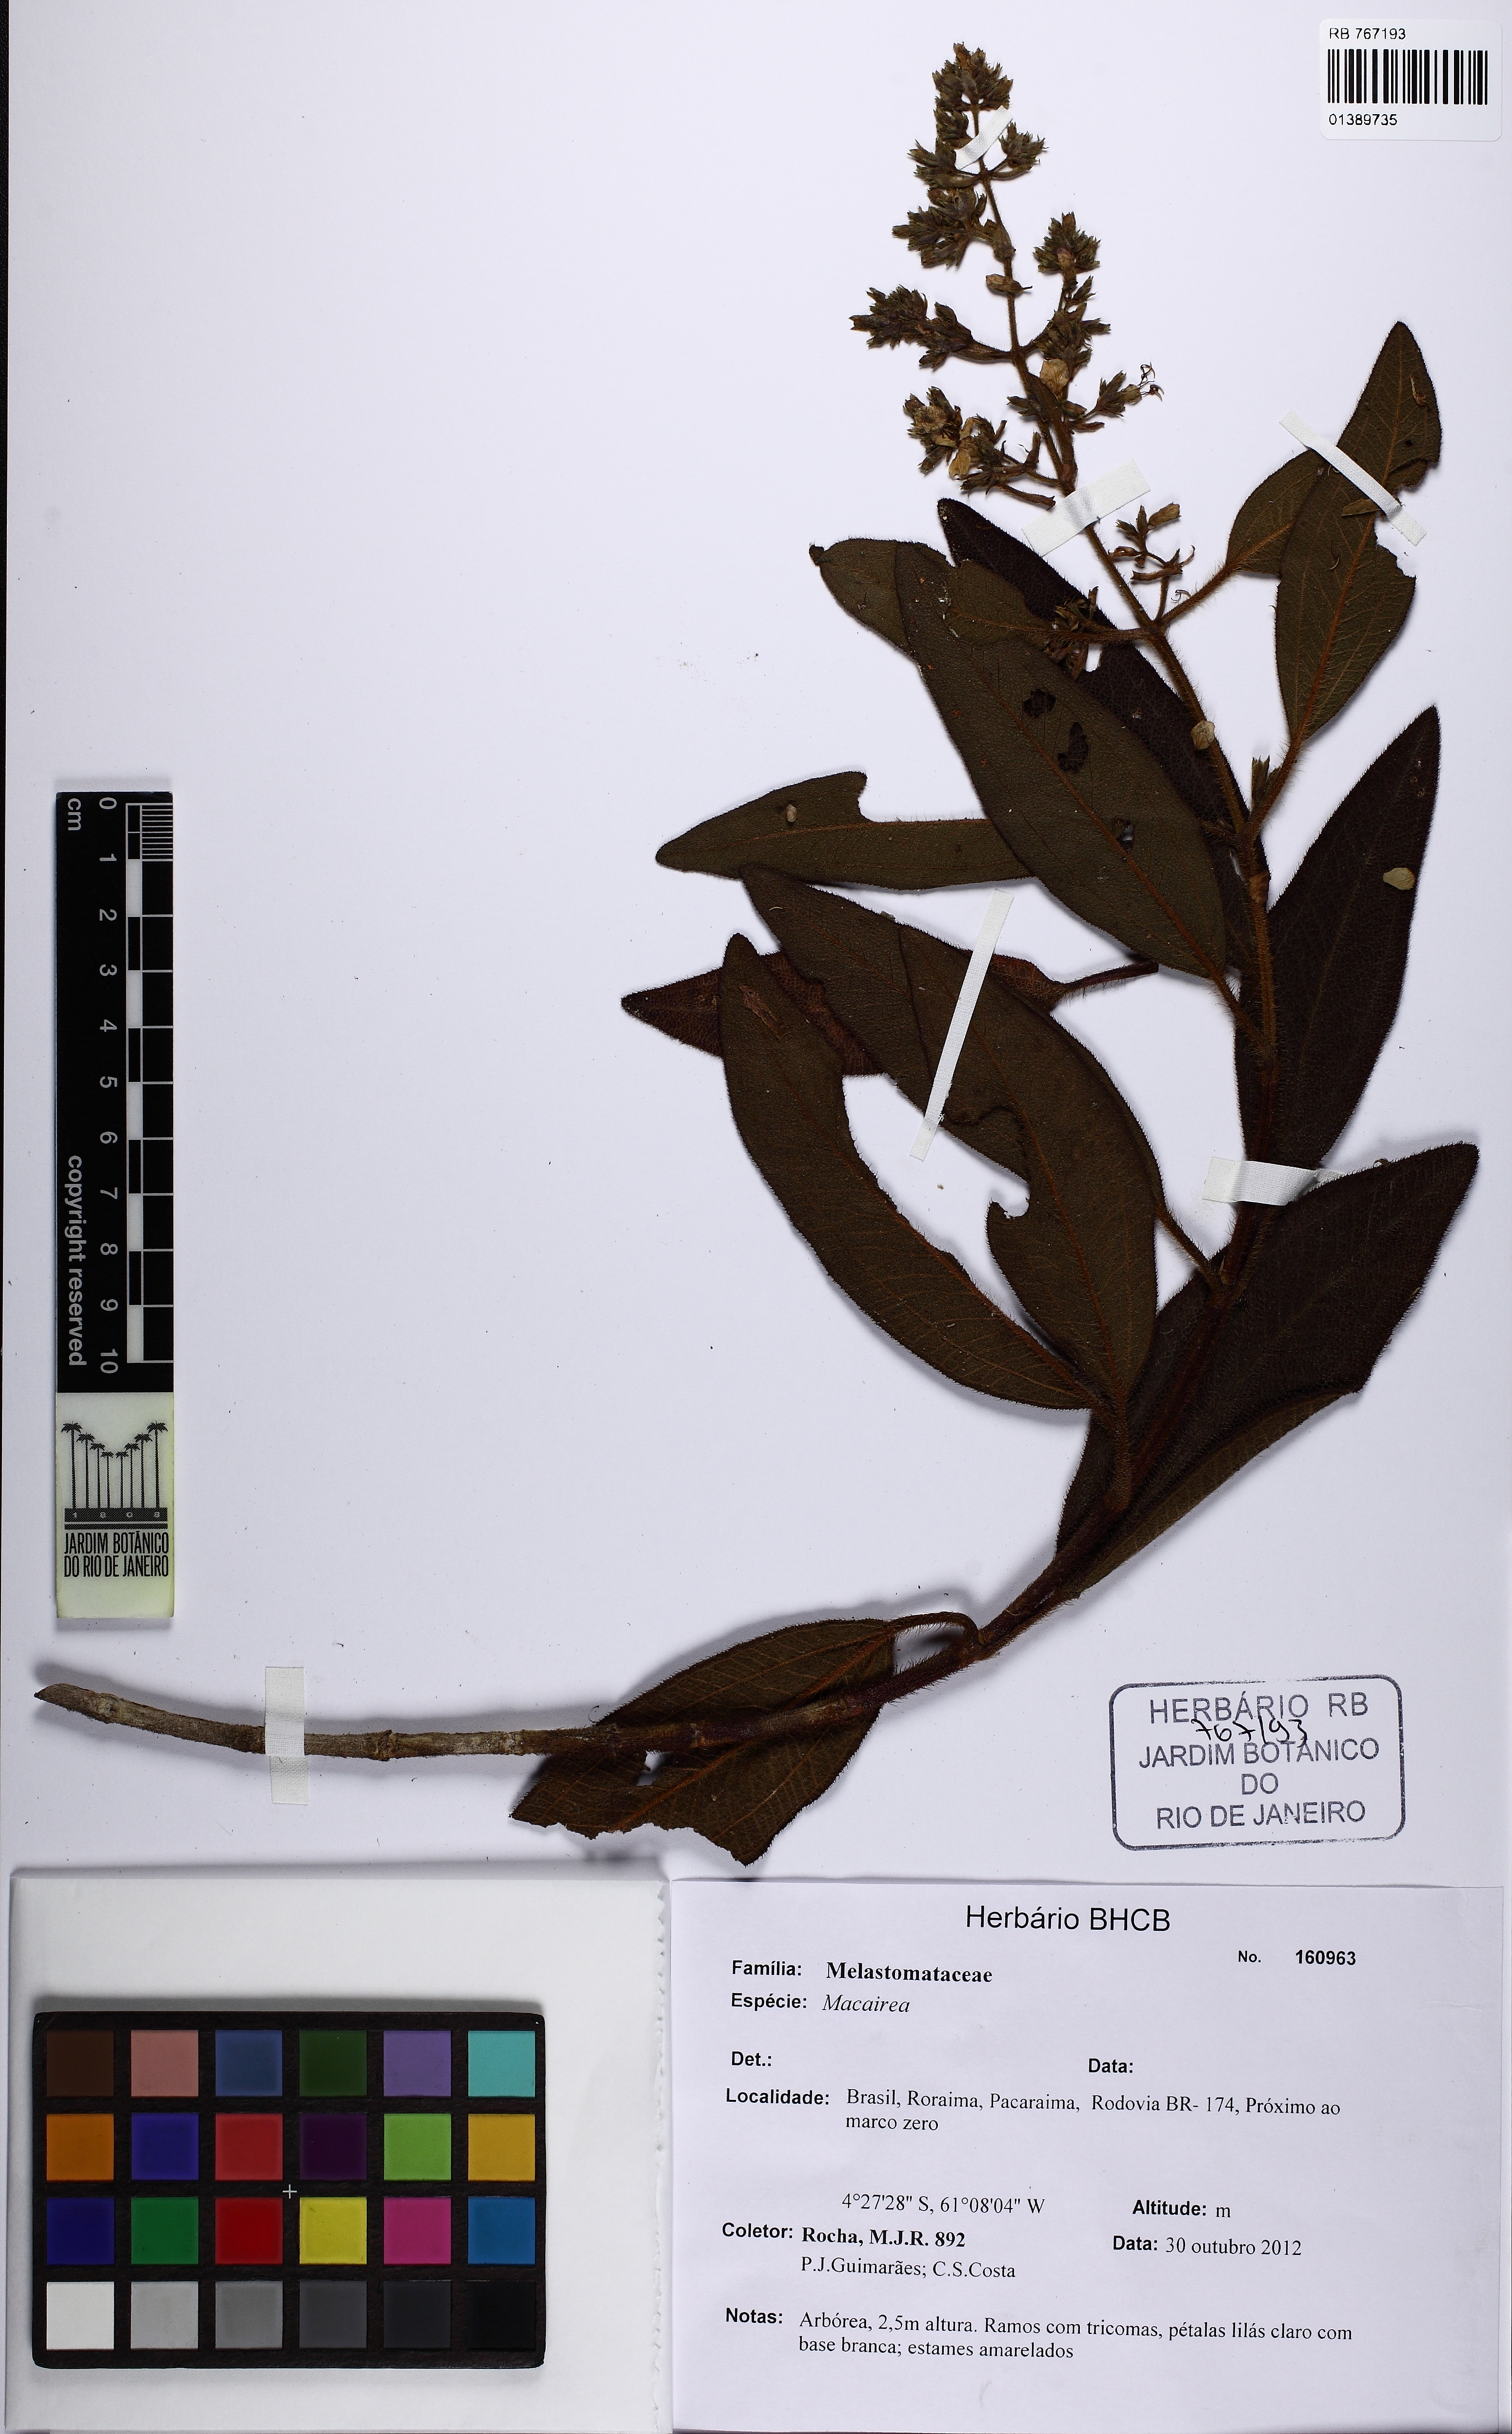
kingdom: Plantae
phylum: Tracheophyta
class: Magnoliopsida
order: Myrtales
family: Melastomataceae
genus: Macairea
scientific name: Macairea pachyphylla
